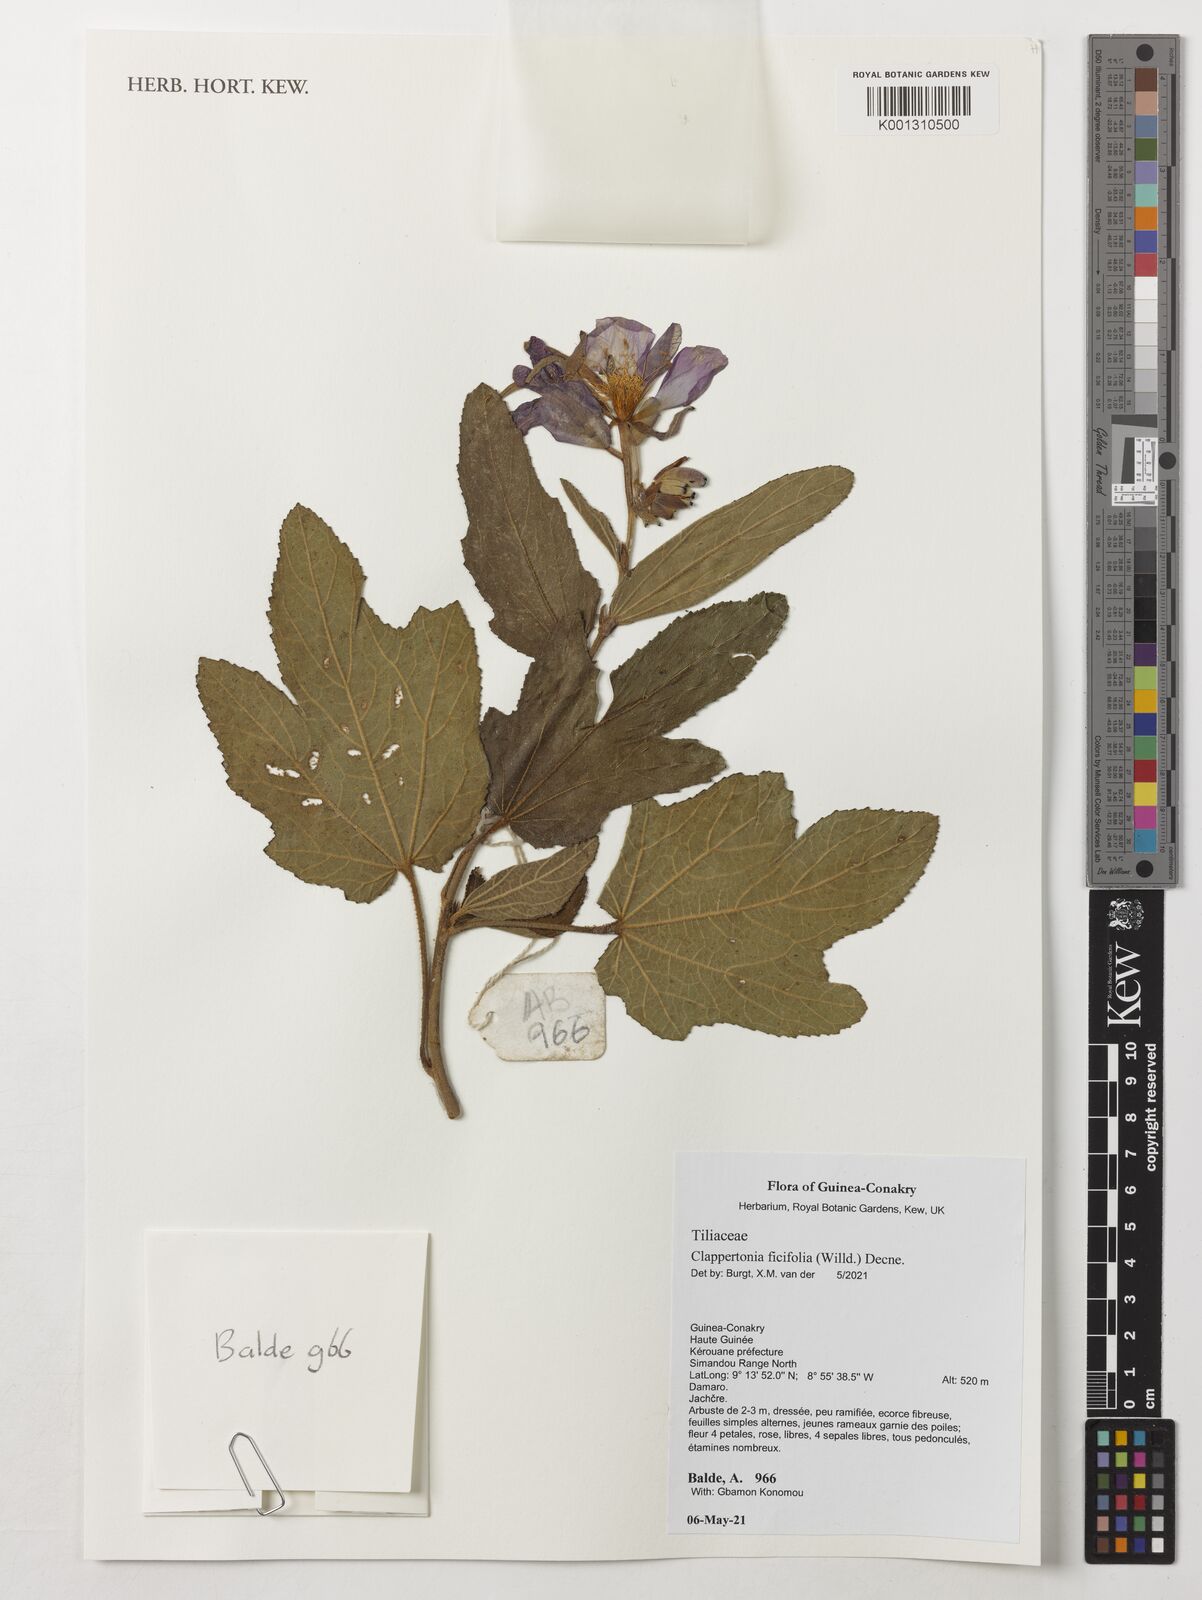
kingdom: Plantae
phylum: Tracheophyta
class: Magnoliopsida
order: Malvales
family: Malvaceae
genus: Clappertonia
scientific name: Clappertonia ficifolia
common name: Bolo-bolo
